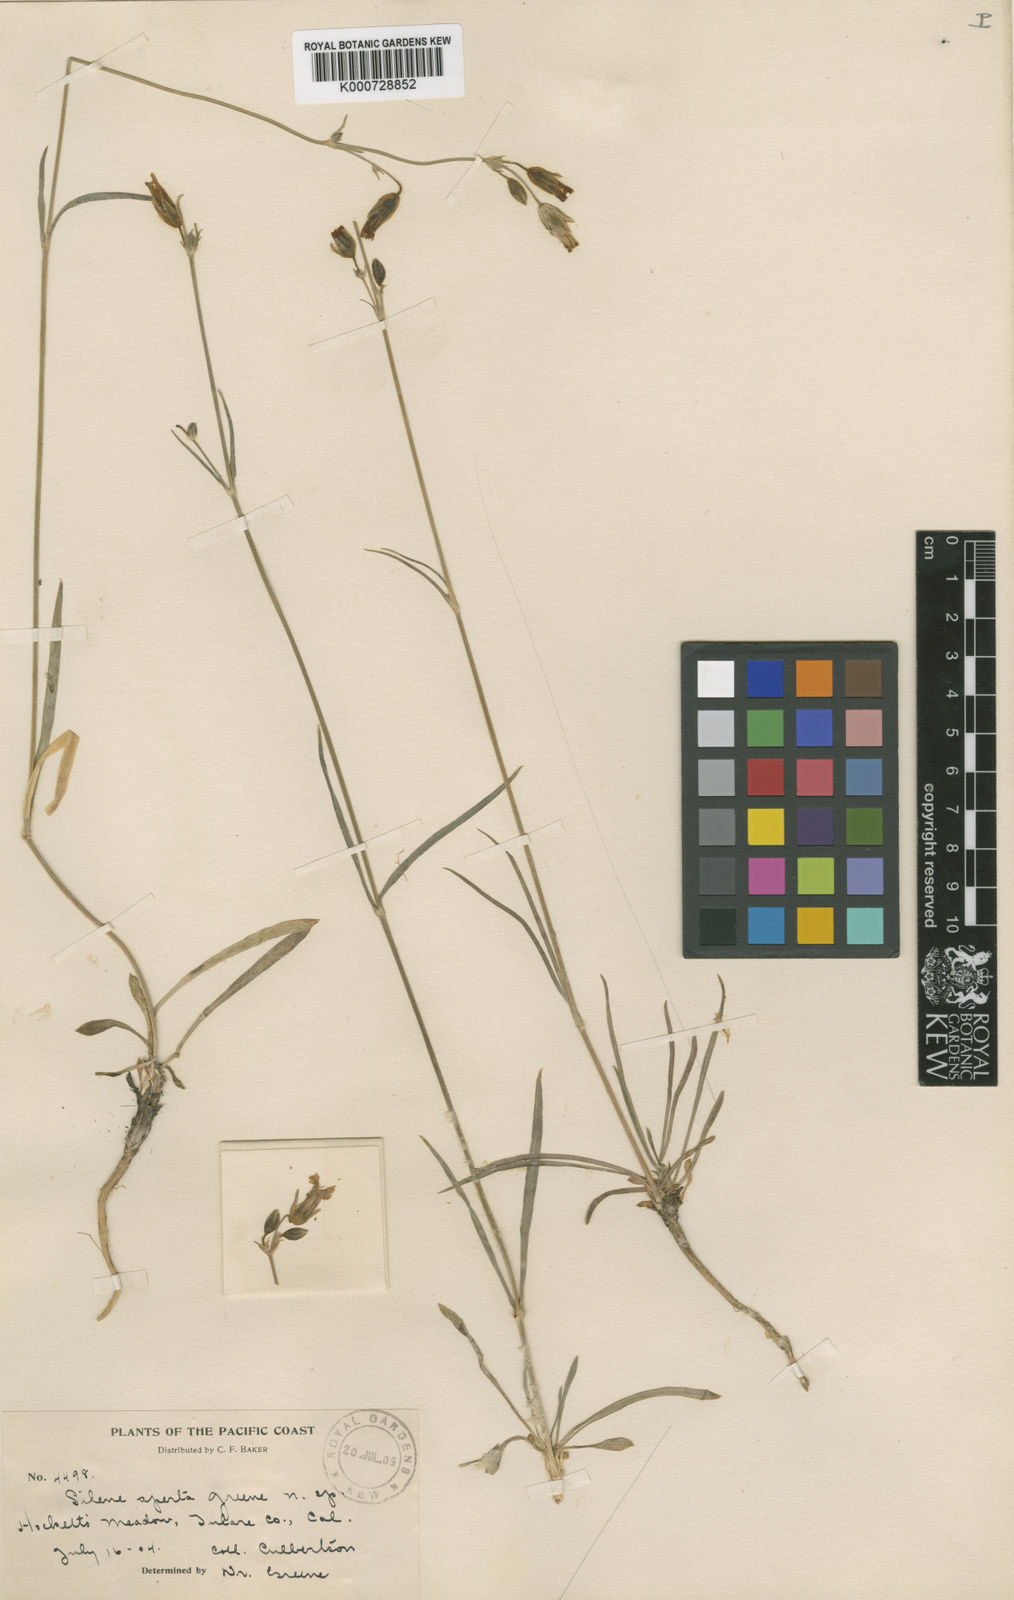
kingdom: Plantae
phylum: Tracheophyta
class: Magnoliopsida
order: Caryophyllales
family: Caryophyllaceae
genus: Silene
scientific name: Silene aperta
